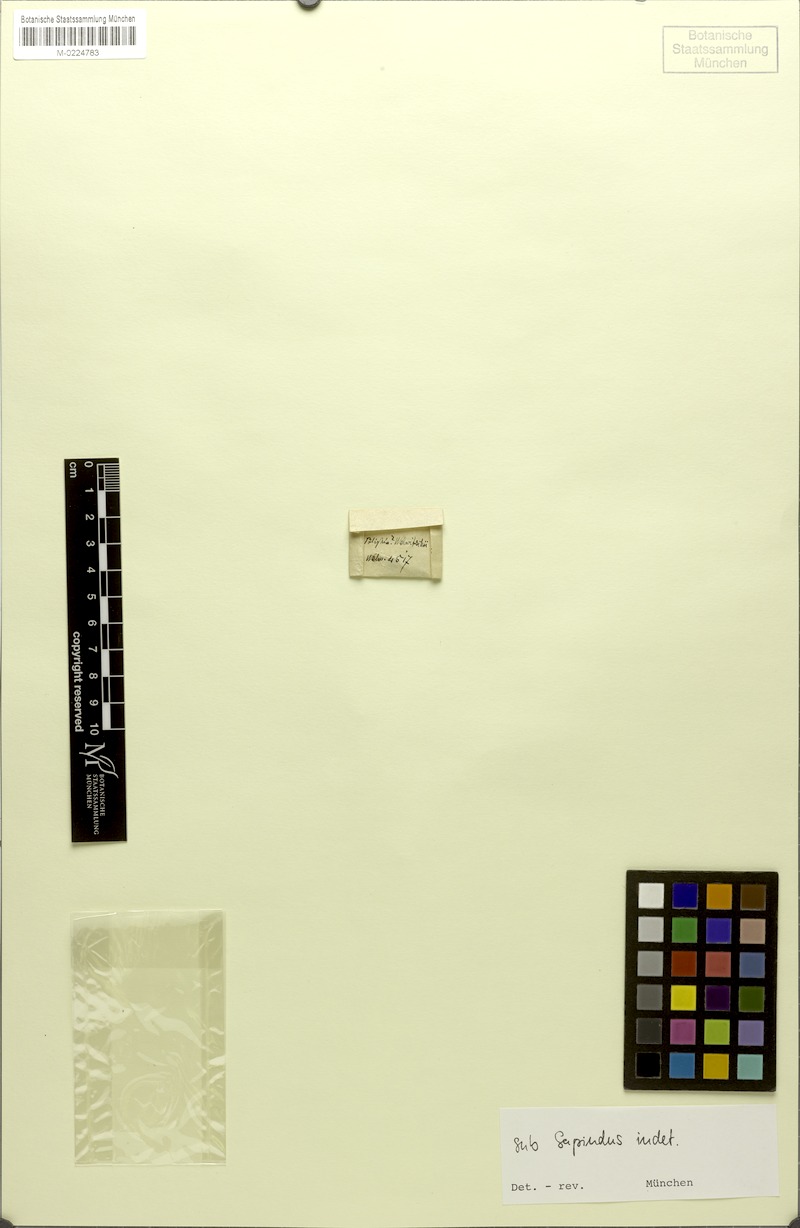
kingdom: Plantae
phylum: Tracheophyta
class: Magnoliopsida
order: Sapindales
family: Sapindaceae
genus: Sapindus
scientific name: Sapindus saponaria
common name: Wingleaf soapberry
